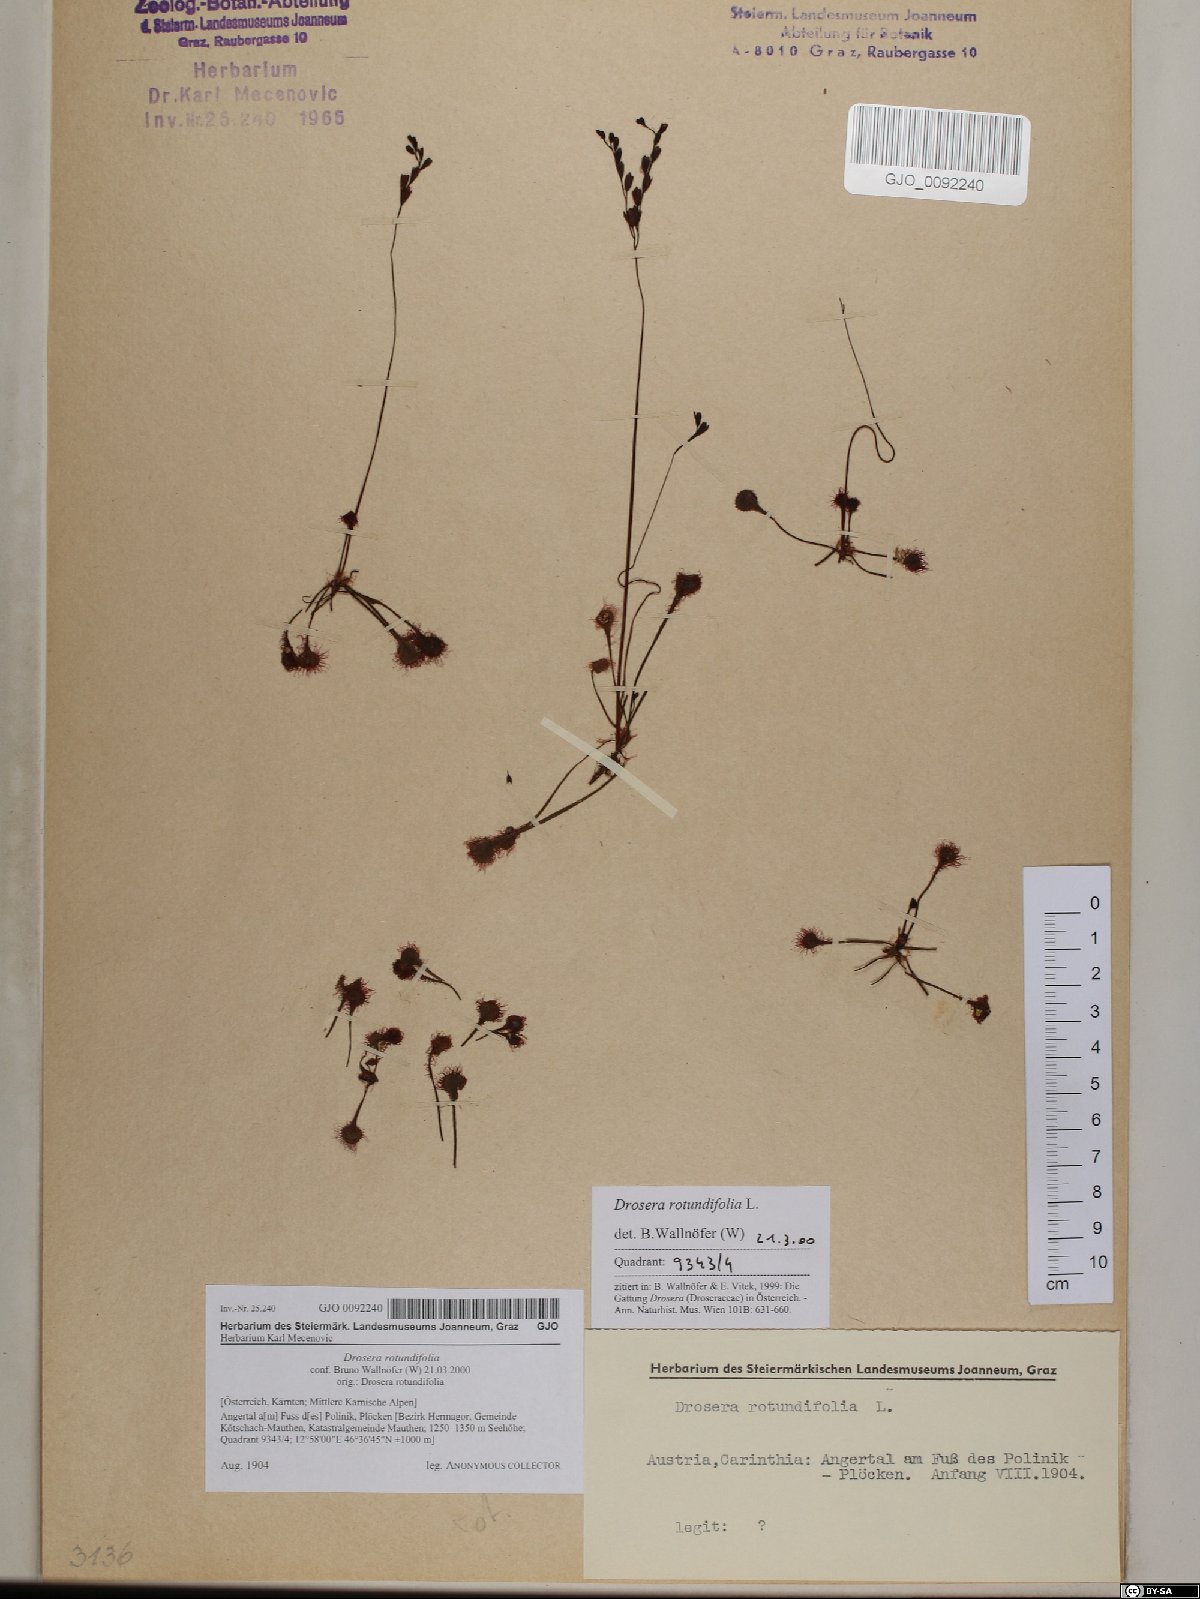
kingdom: Plantae
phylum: Tracheophyta
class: Magnoliopsida
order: Caryophyllales
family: Droseraceae
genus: Drosera
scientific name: Drosera rotundifolia
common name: Round-leaved sundew
